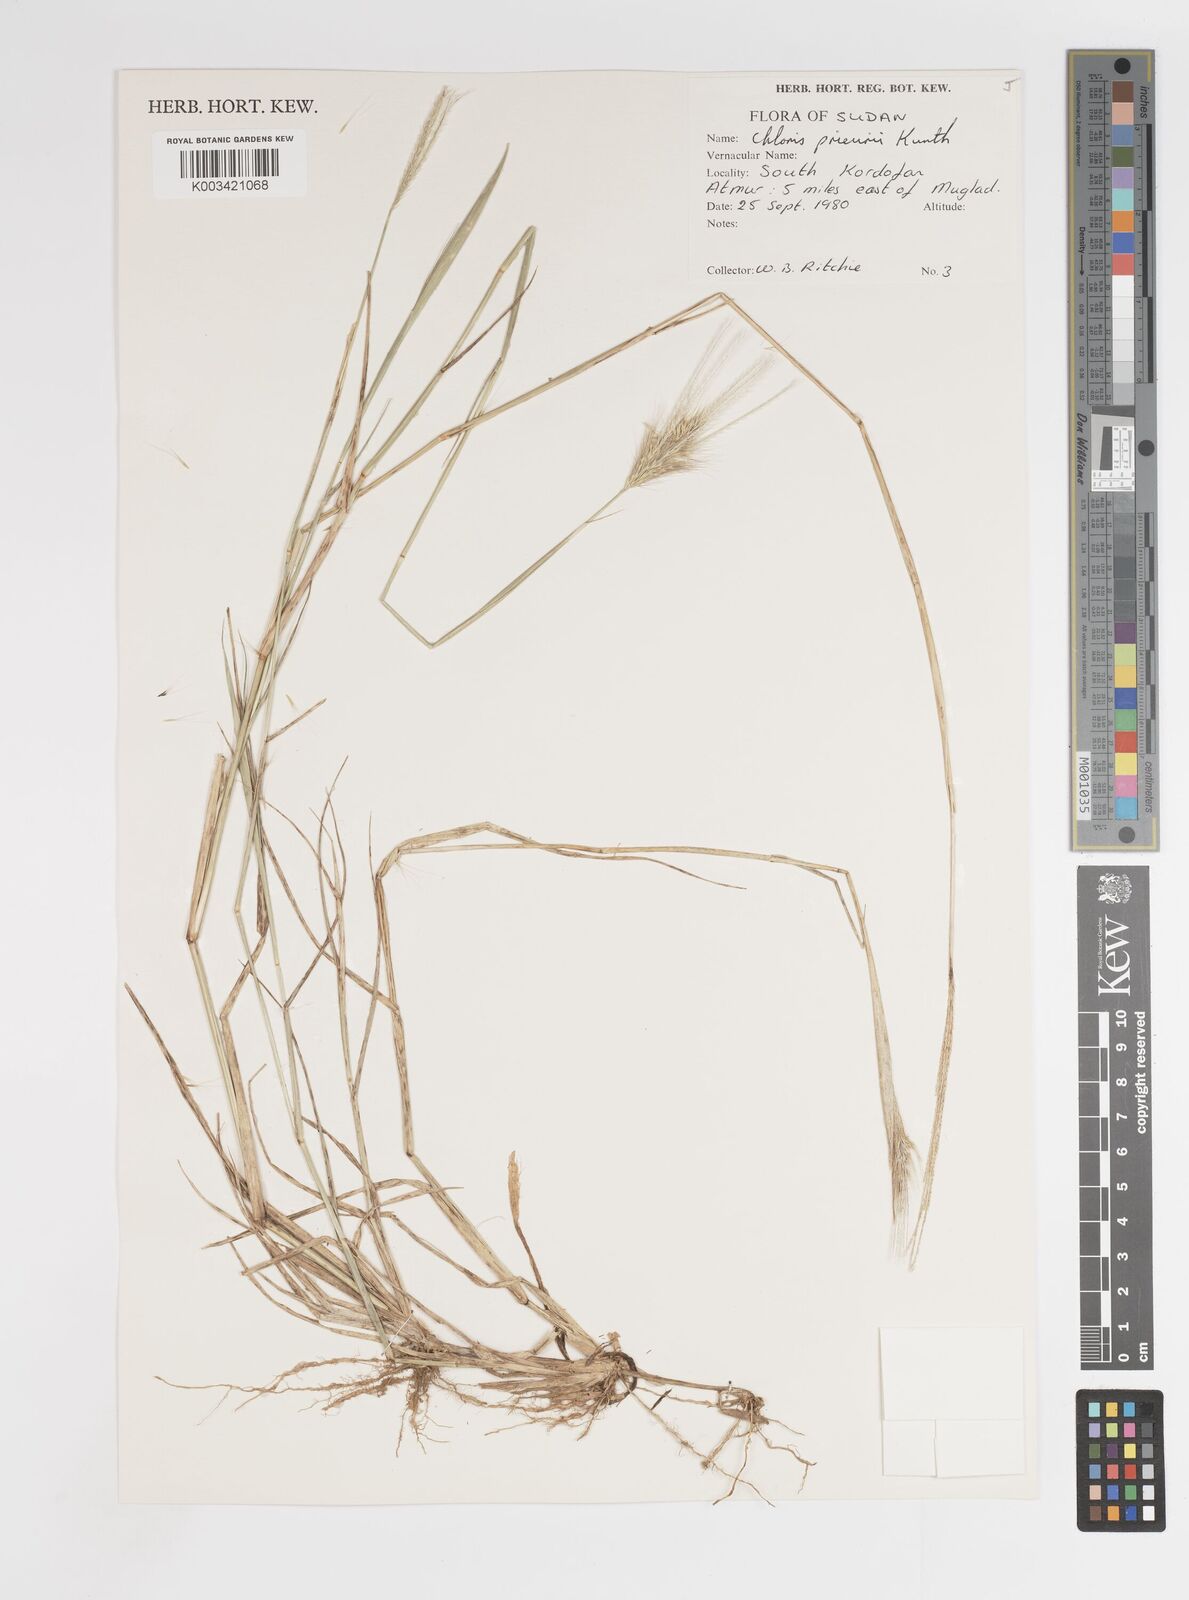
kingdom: Plantae
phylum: Tracheophyta
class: Liliopsida
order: Poales
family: Poaceae
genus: Enteropogon
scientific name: Enteropogon prieurii
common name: Prieur's umbrellagrass
